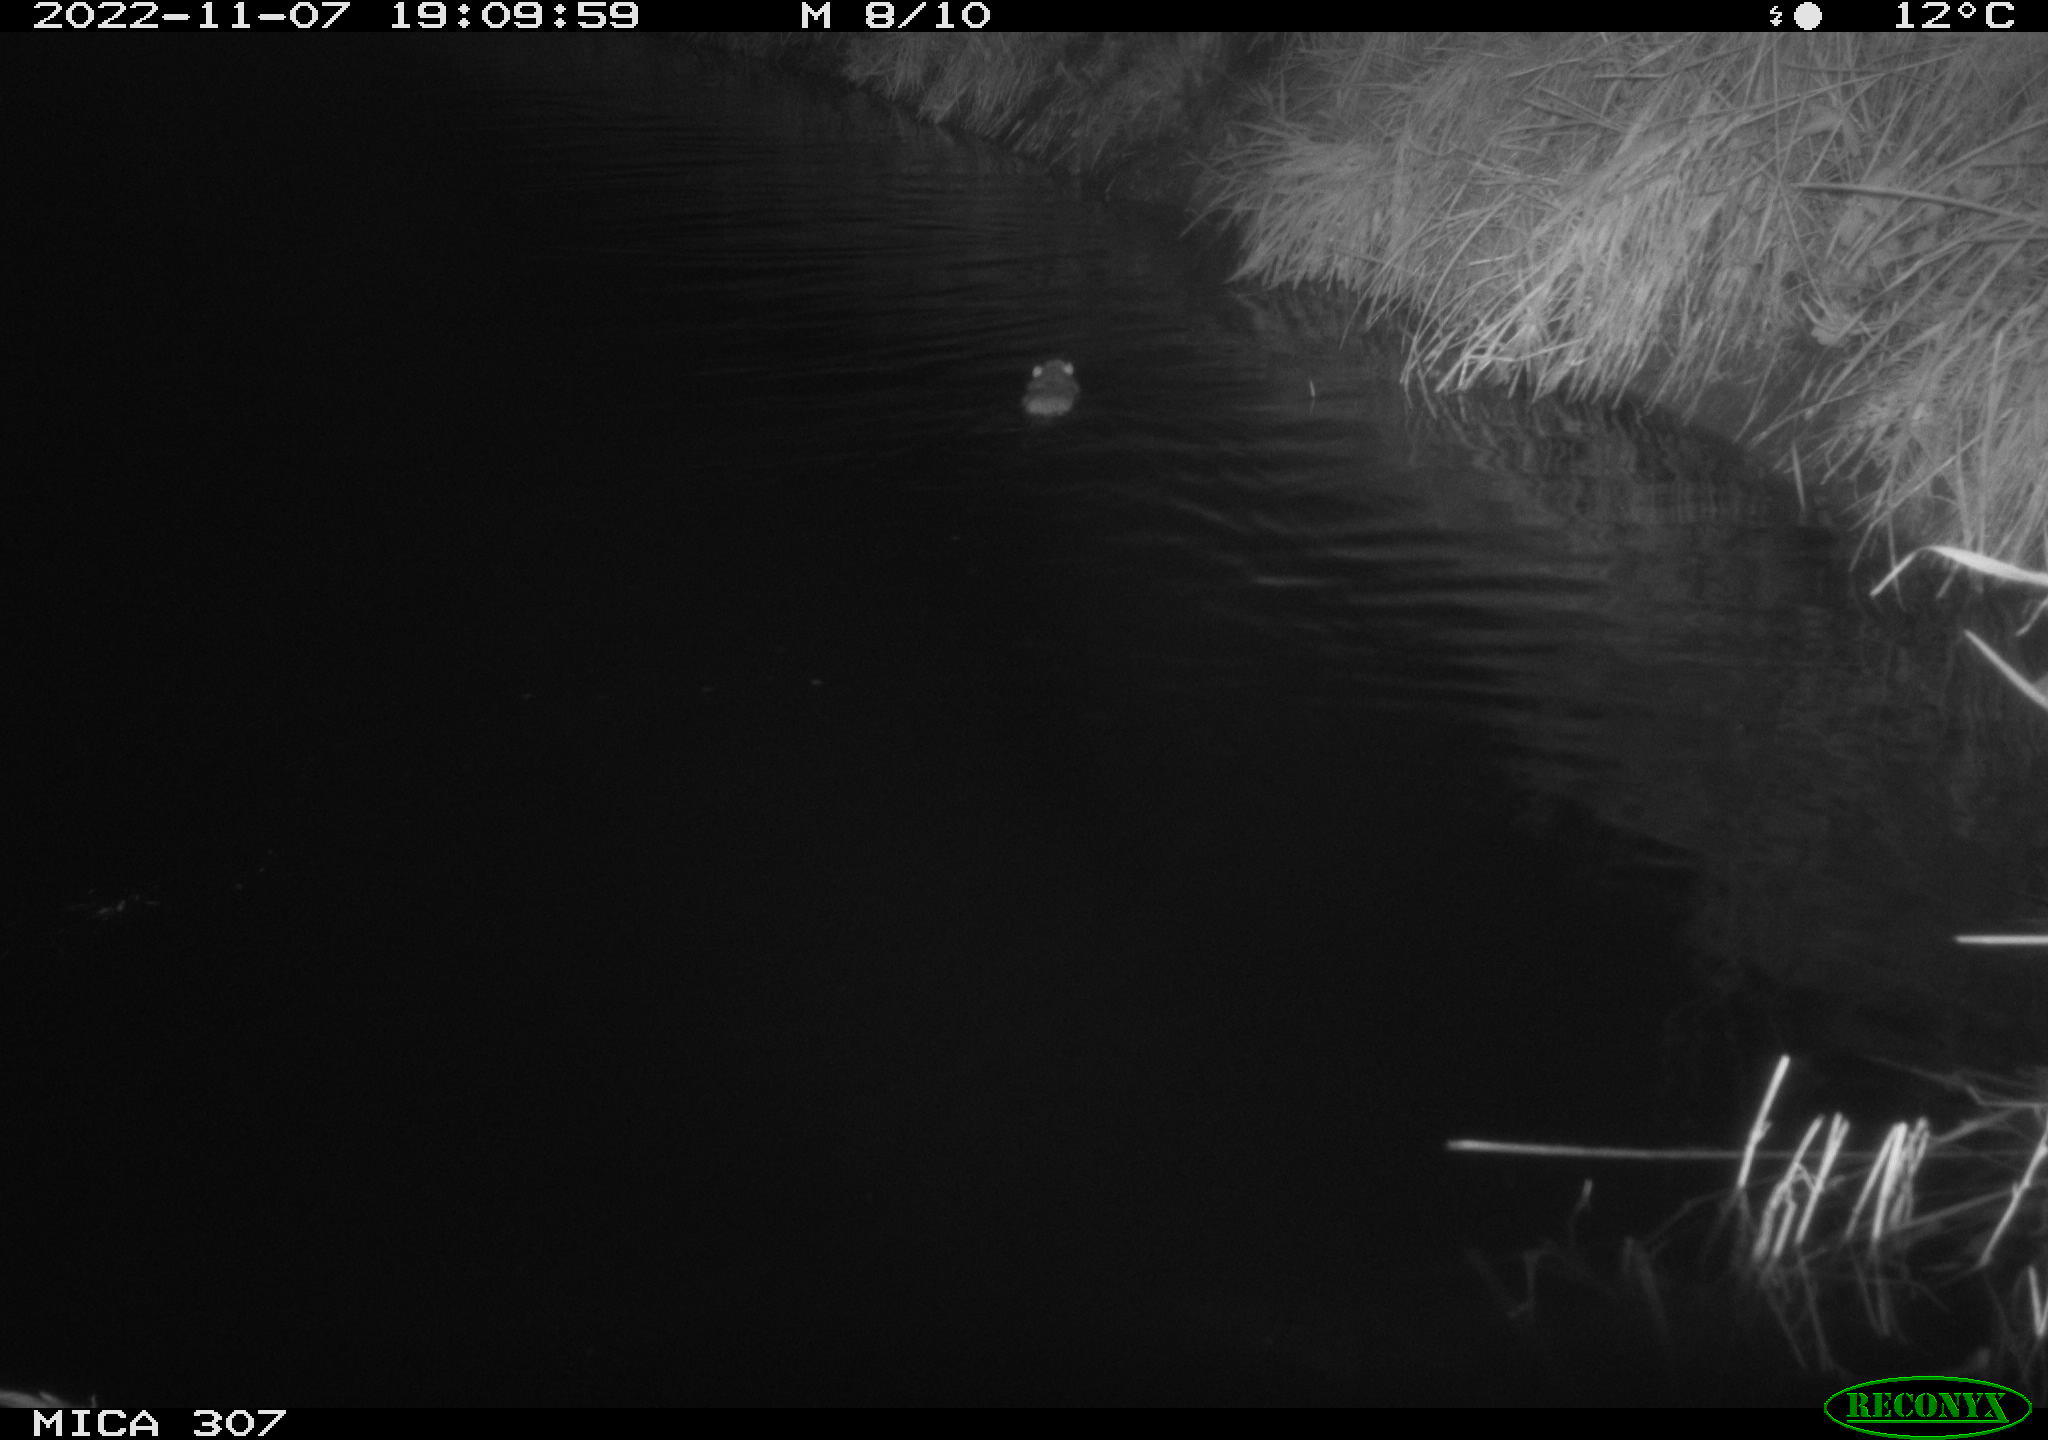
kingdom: Animalia
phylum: Chordata
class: Mammalia
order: Rodentia
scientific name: Rodentia
